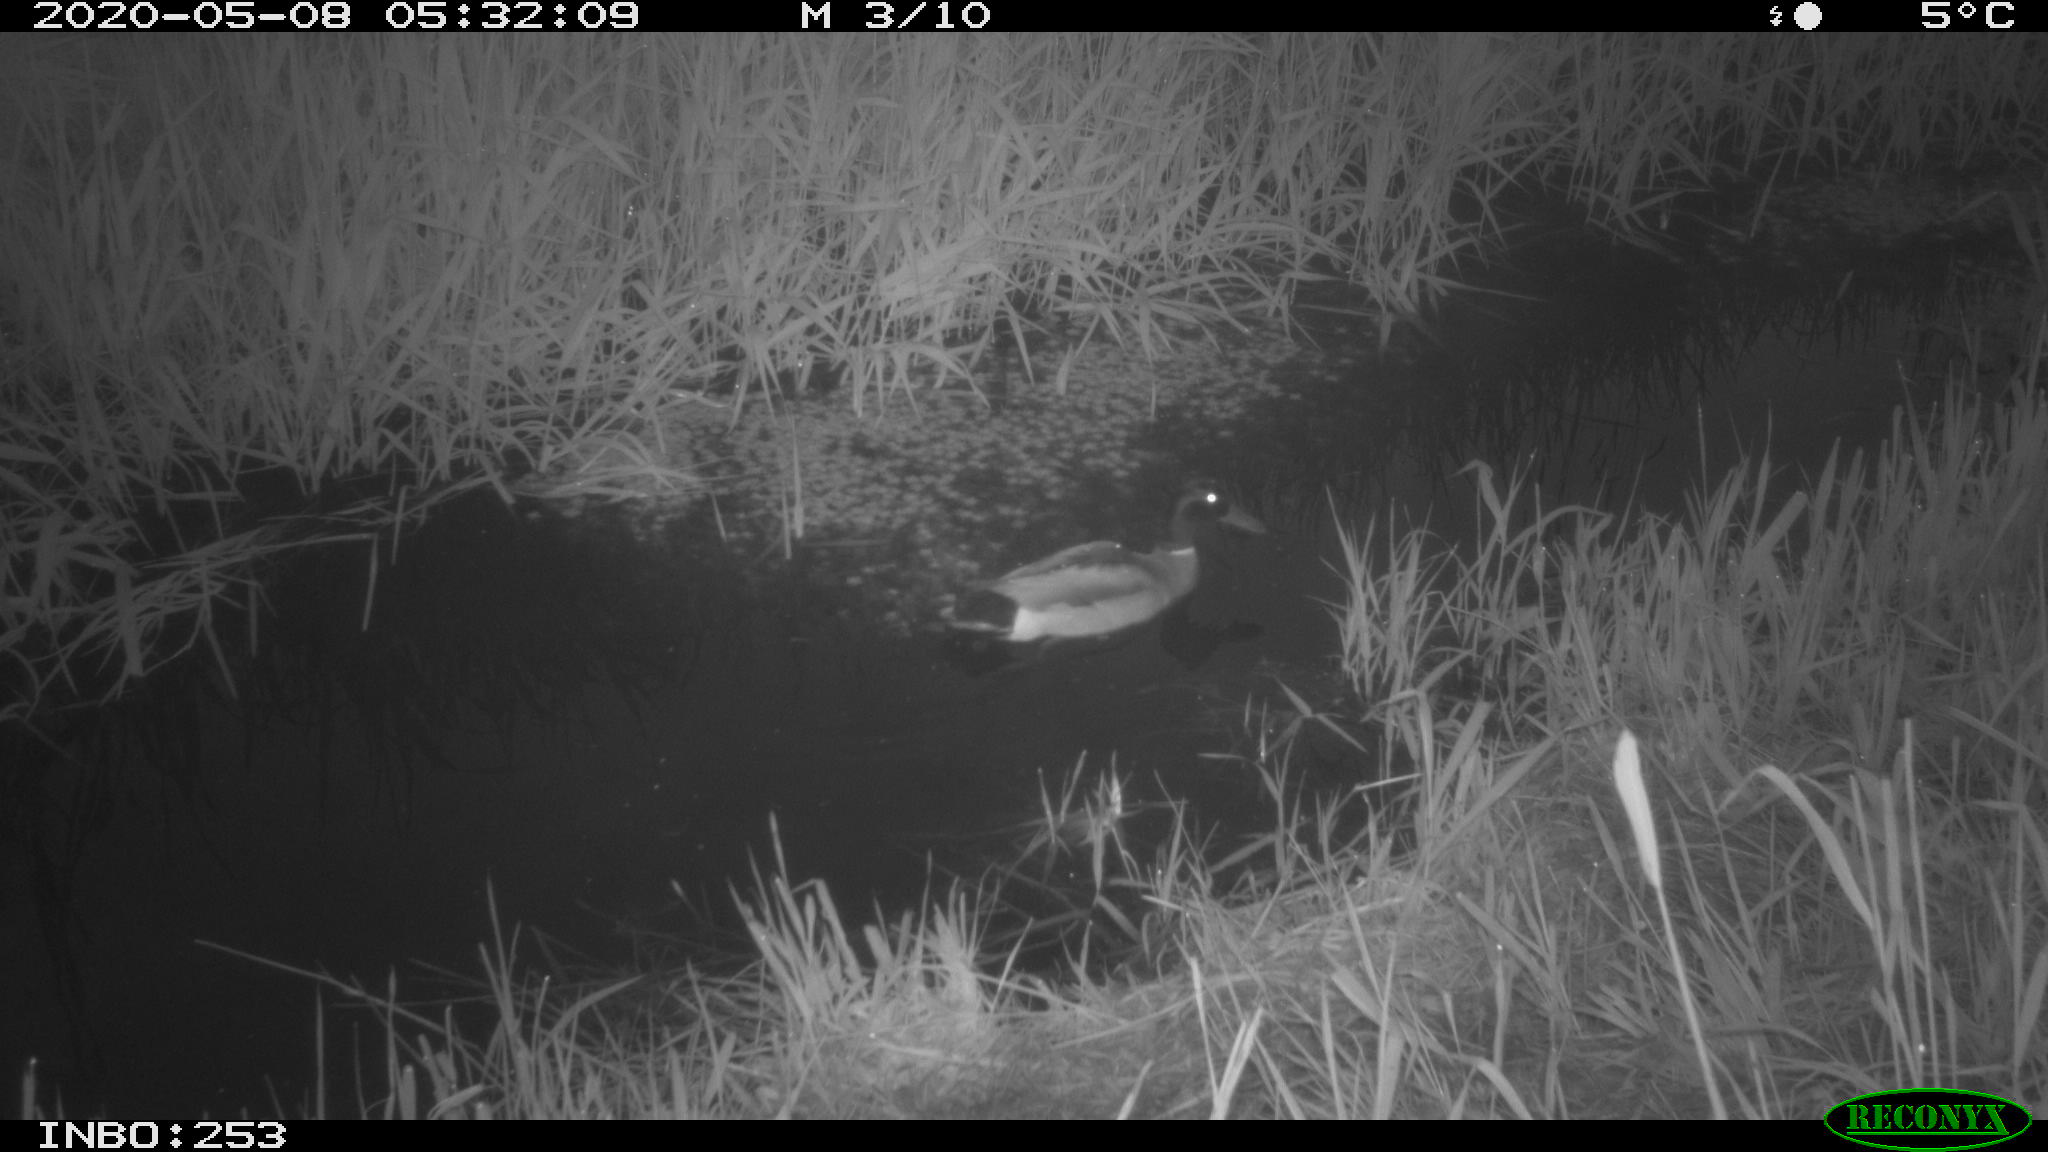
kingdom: Animalia
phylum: Chordata
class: Aves
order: Anseriformes
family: Anatidae
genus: Anas
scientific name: Anas platyrhynchos
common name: Mallard
